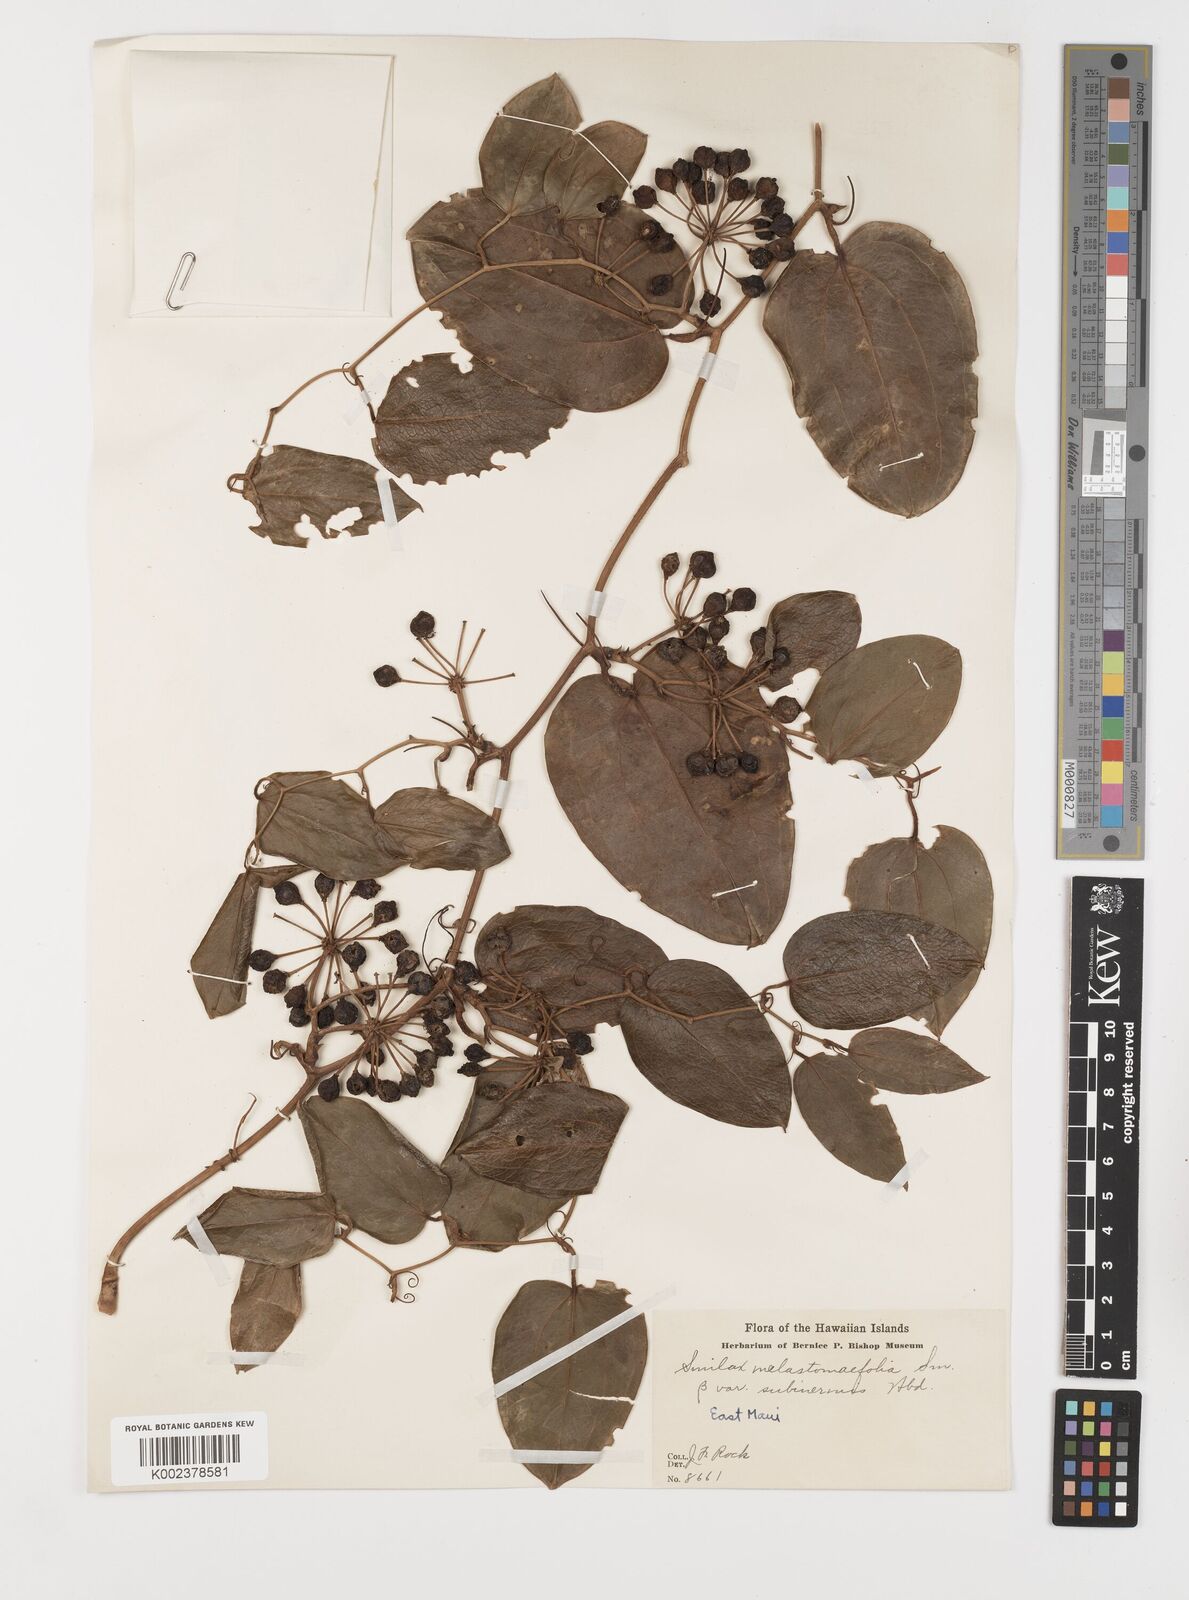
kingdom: Plantae
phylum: Tracheophyta
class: Liliopsida
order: Liliales
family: Smilacaceae
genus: Smilax
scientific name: Smilax melastomifolia
